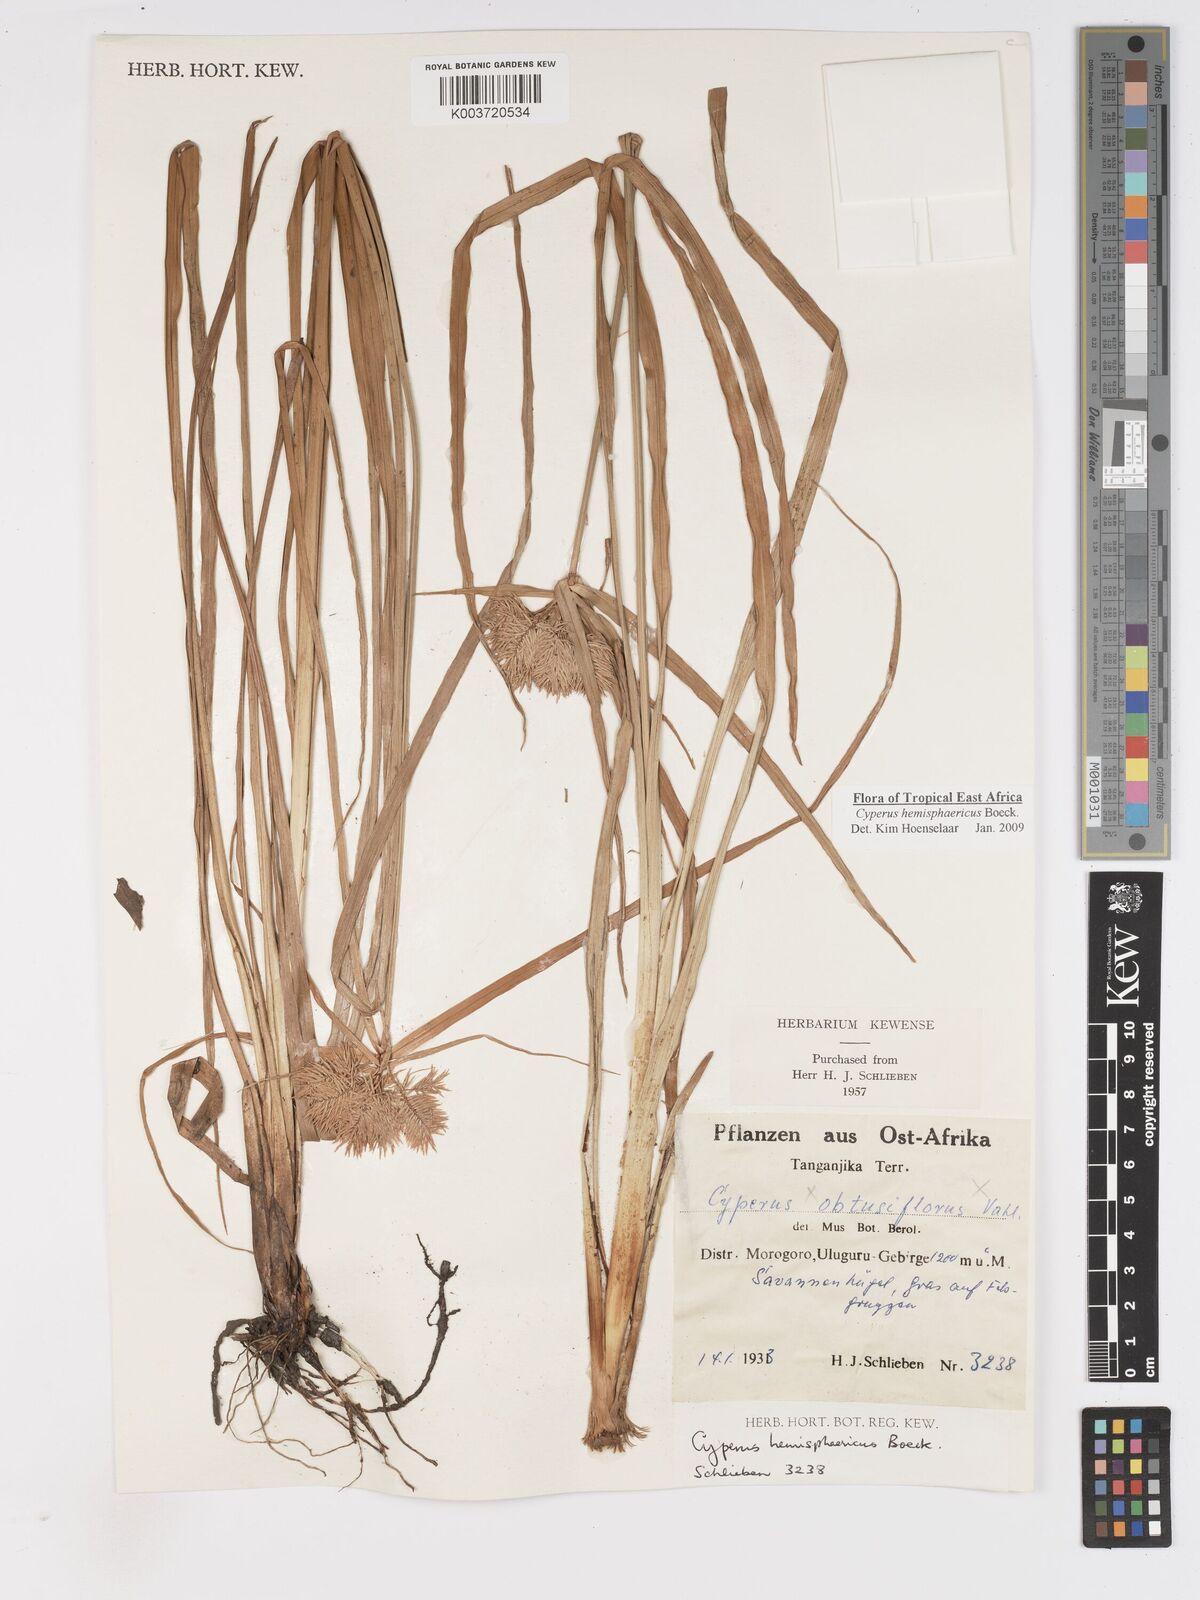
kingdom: Plantae
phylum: Tracheophyta
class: Liliopsida
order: Poales
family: Cyperaceae
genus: Cyperus
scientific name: Cyperus hemisphaericus
